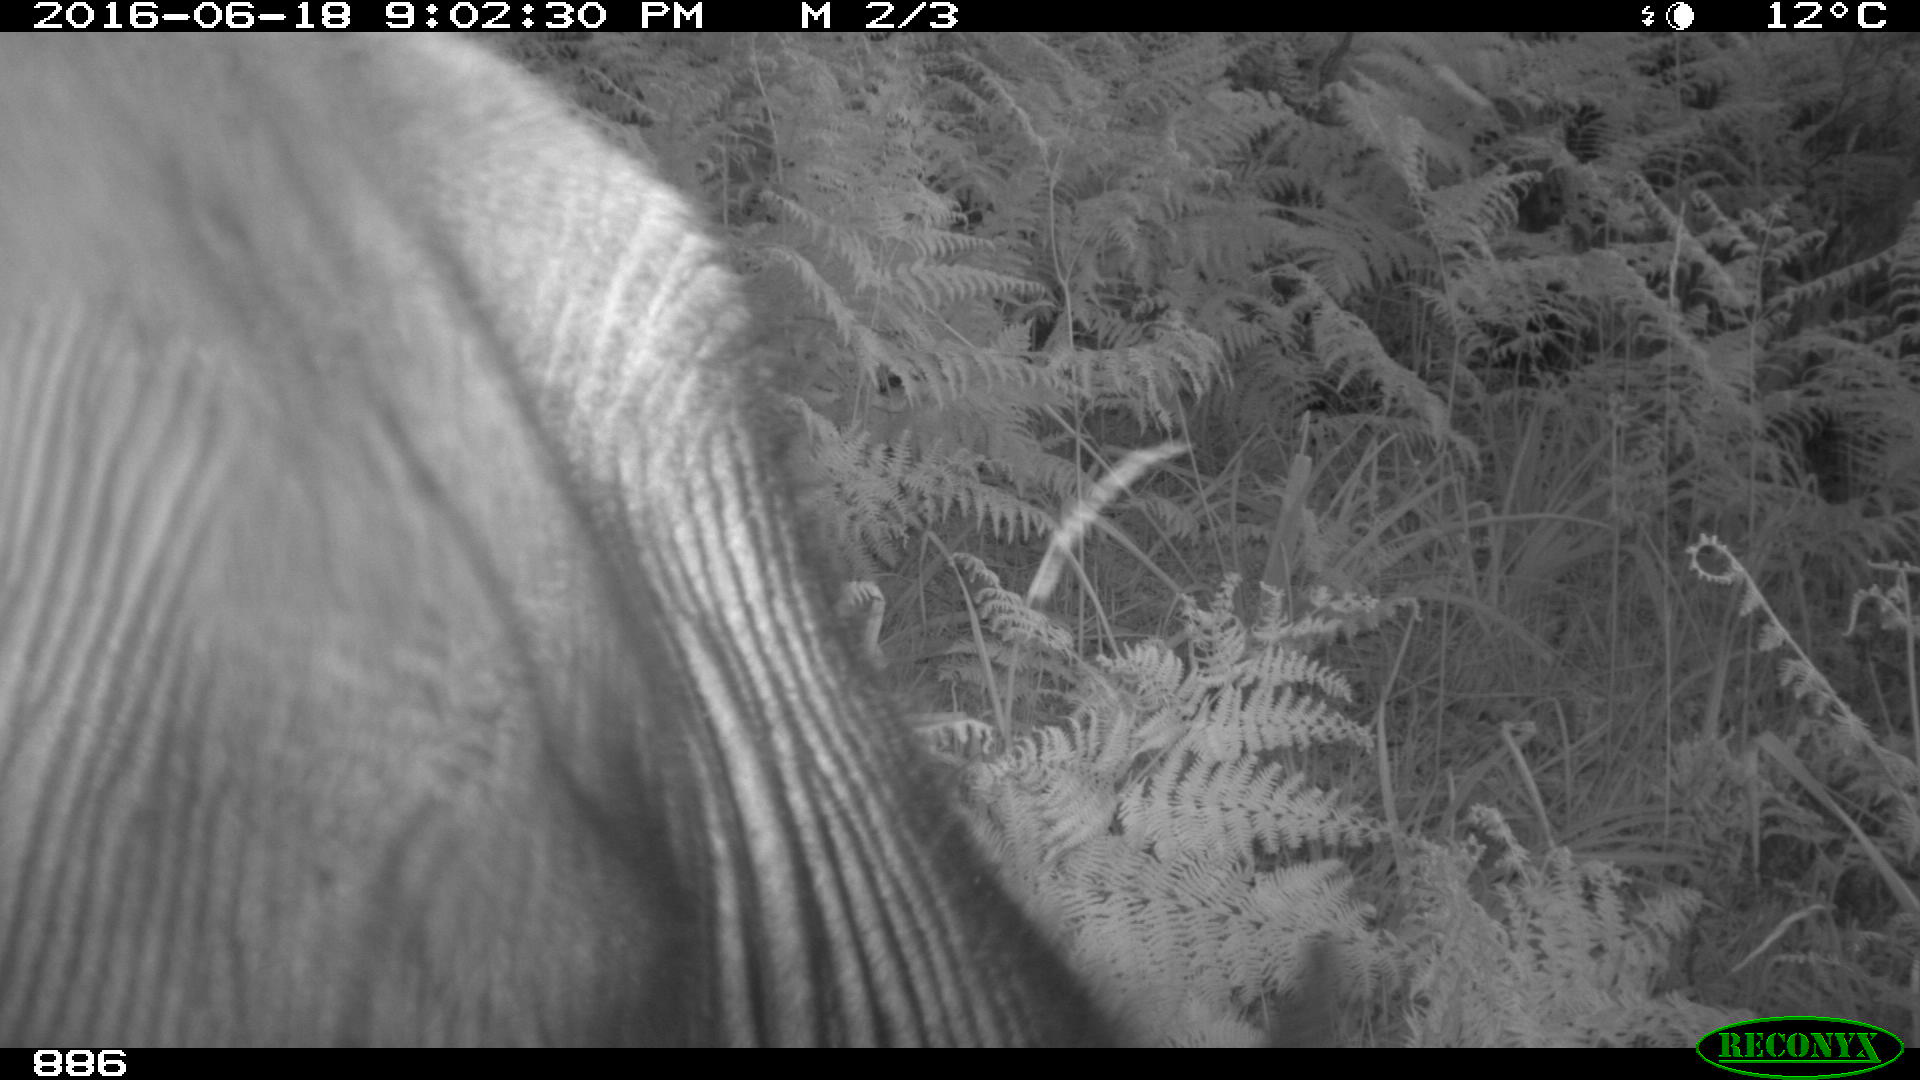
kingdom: Animalia
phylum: Chordata
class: Mammalia
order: Artiodactyla
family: Bovidae
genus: Bos
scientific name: Bos taurus
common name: Domesticated cattle
